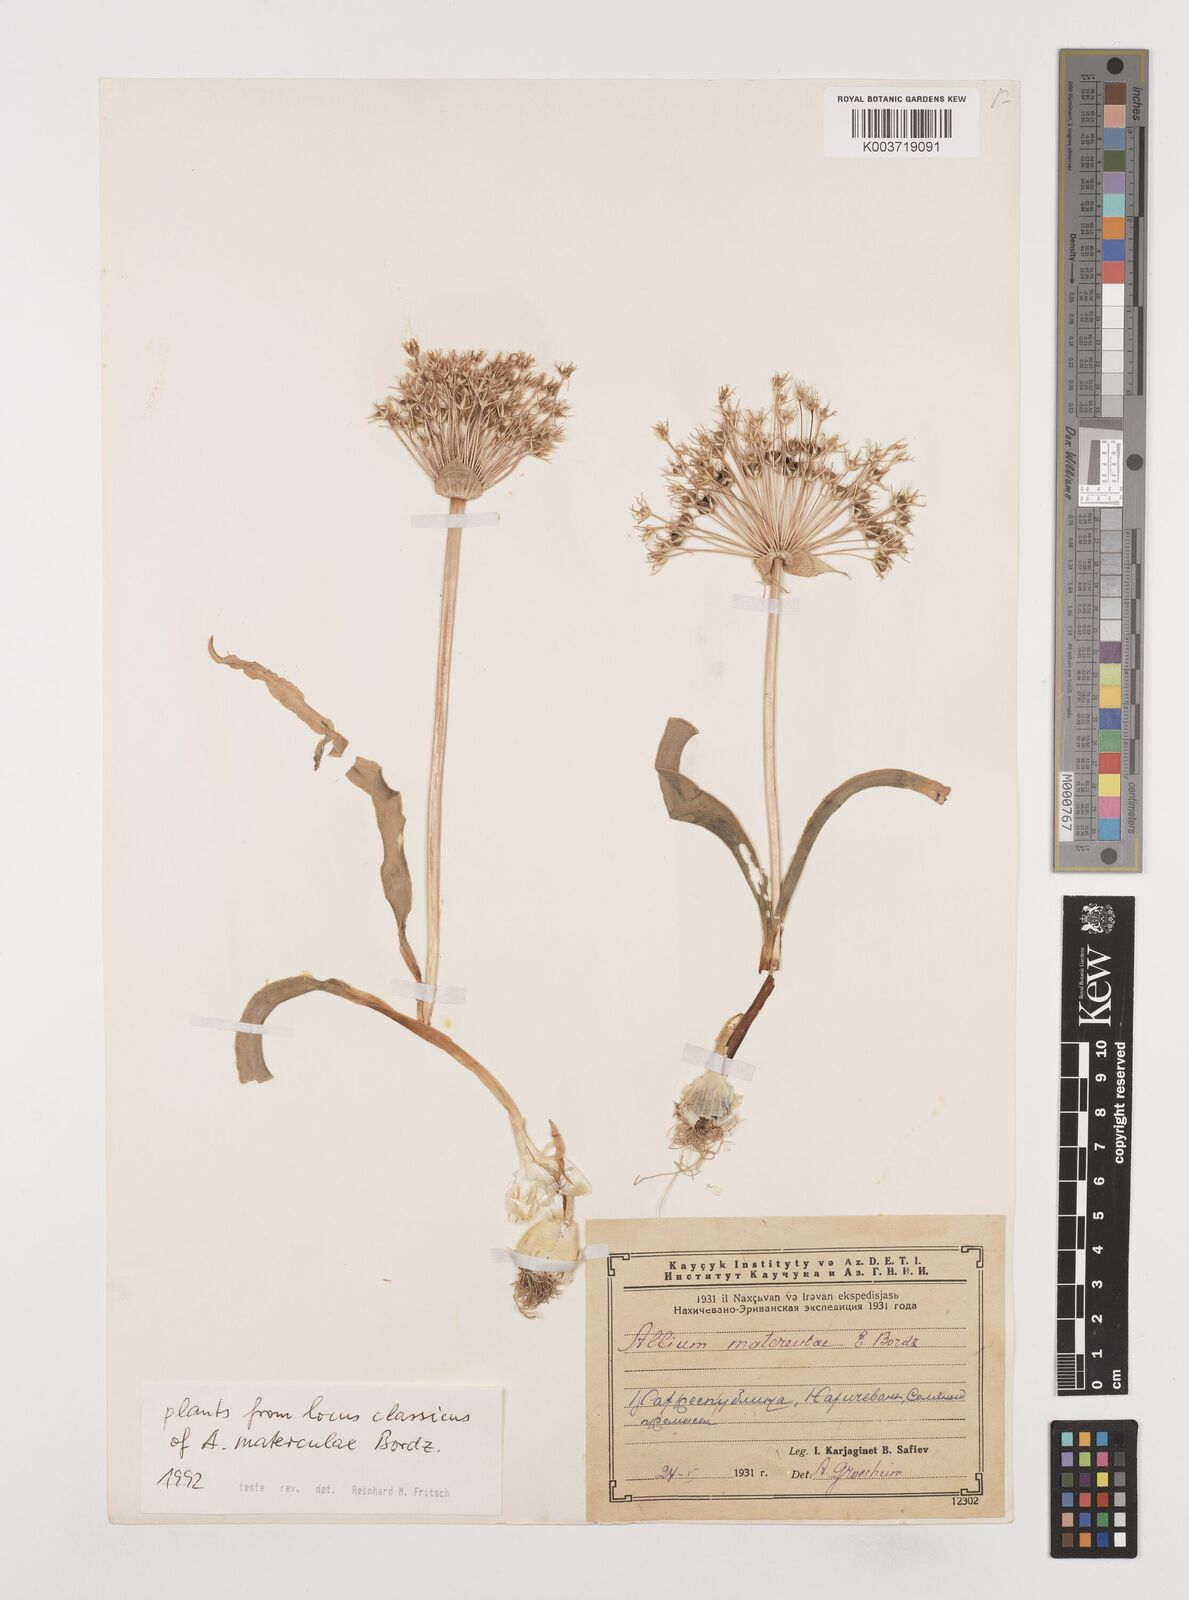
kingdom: Plantae
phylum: Tracheophyta
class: Liliopsida
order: Asparagales
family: Amaryllidaceae
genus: Allium
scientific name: Allium materculae
